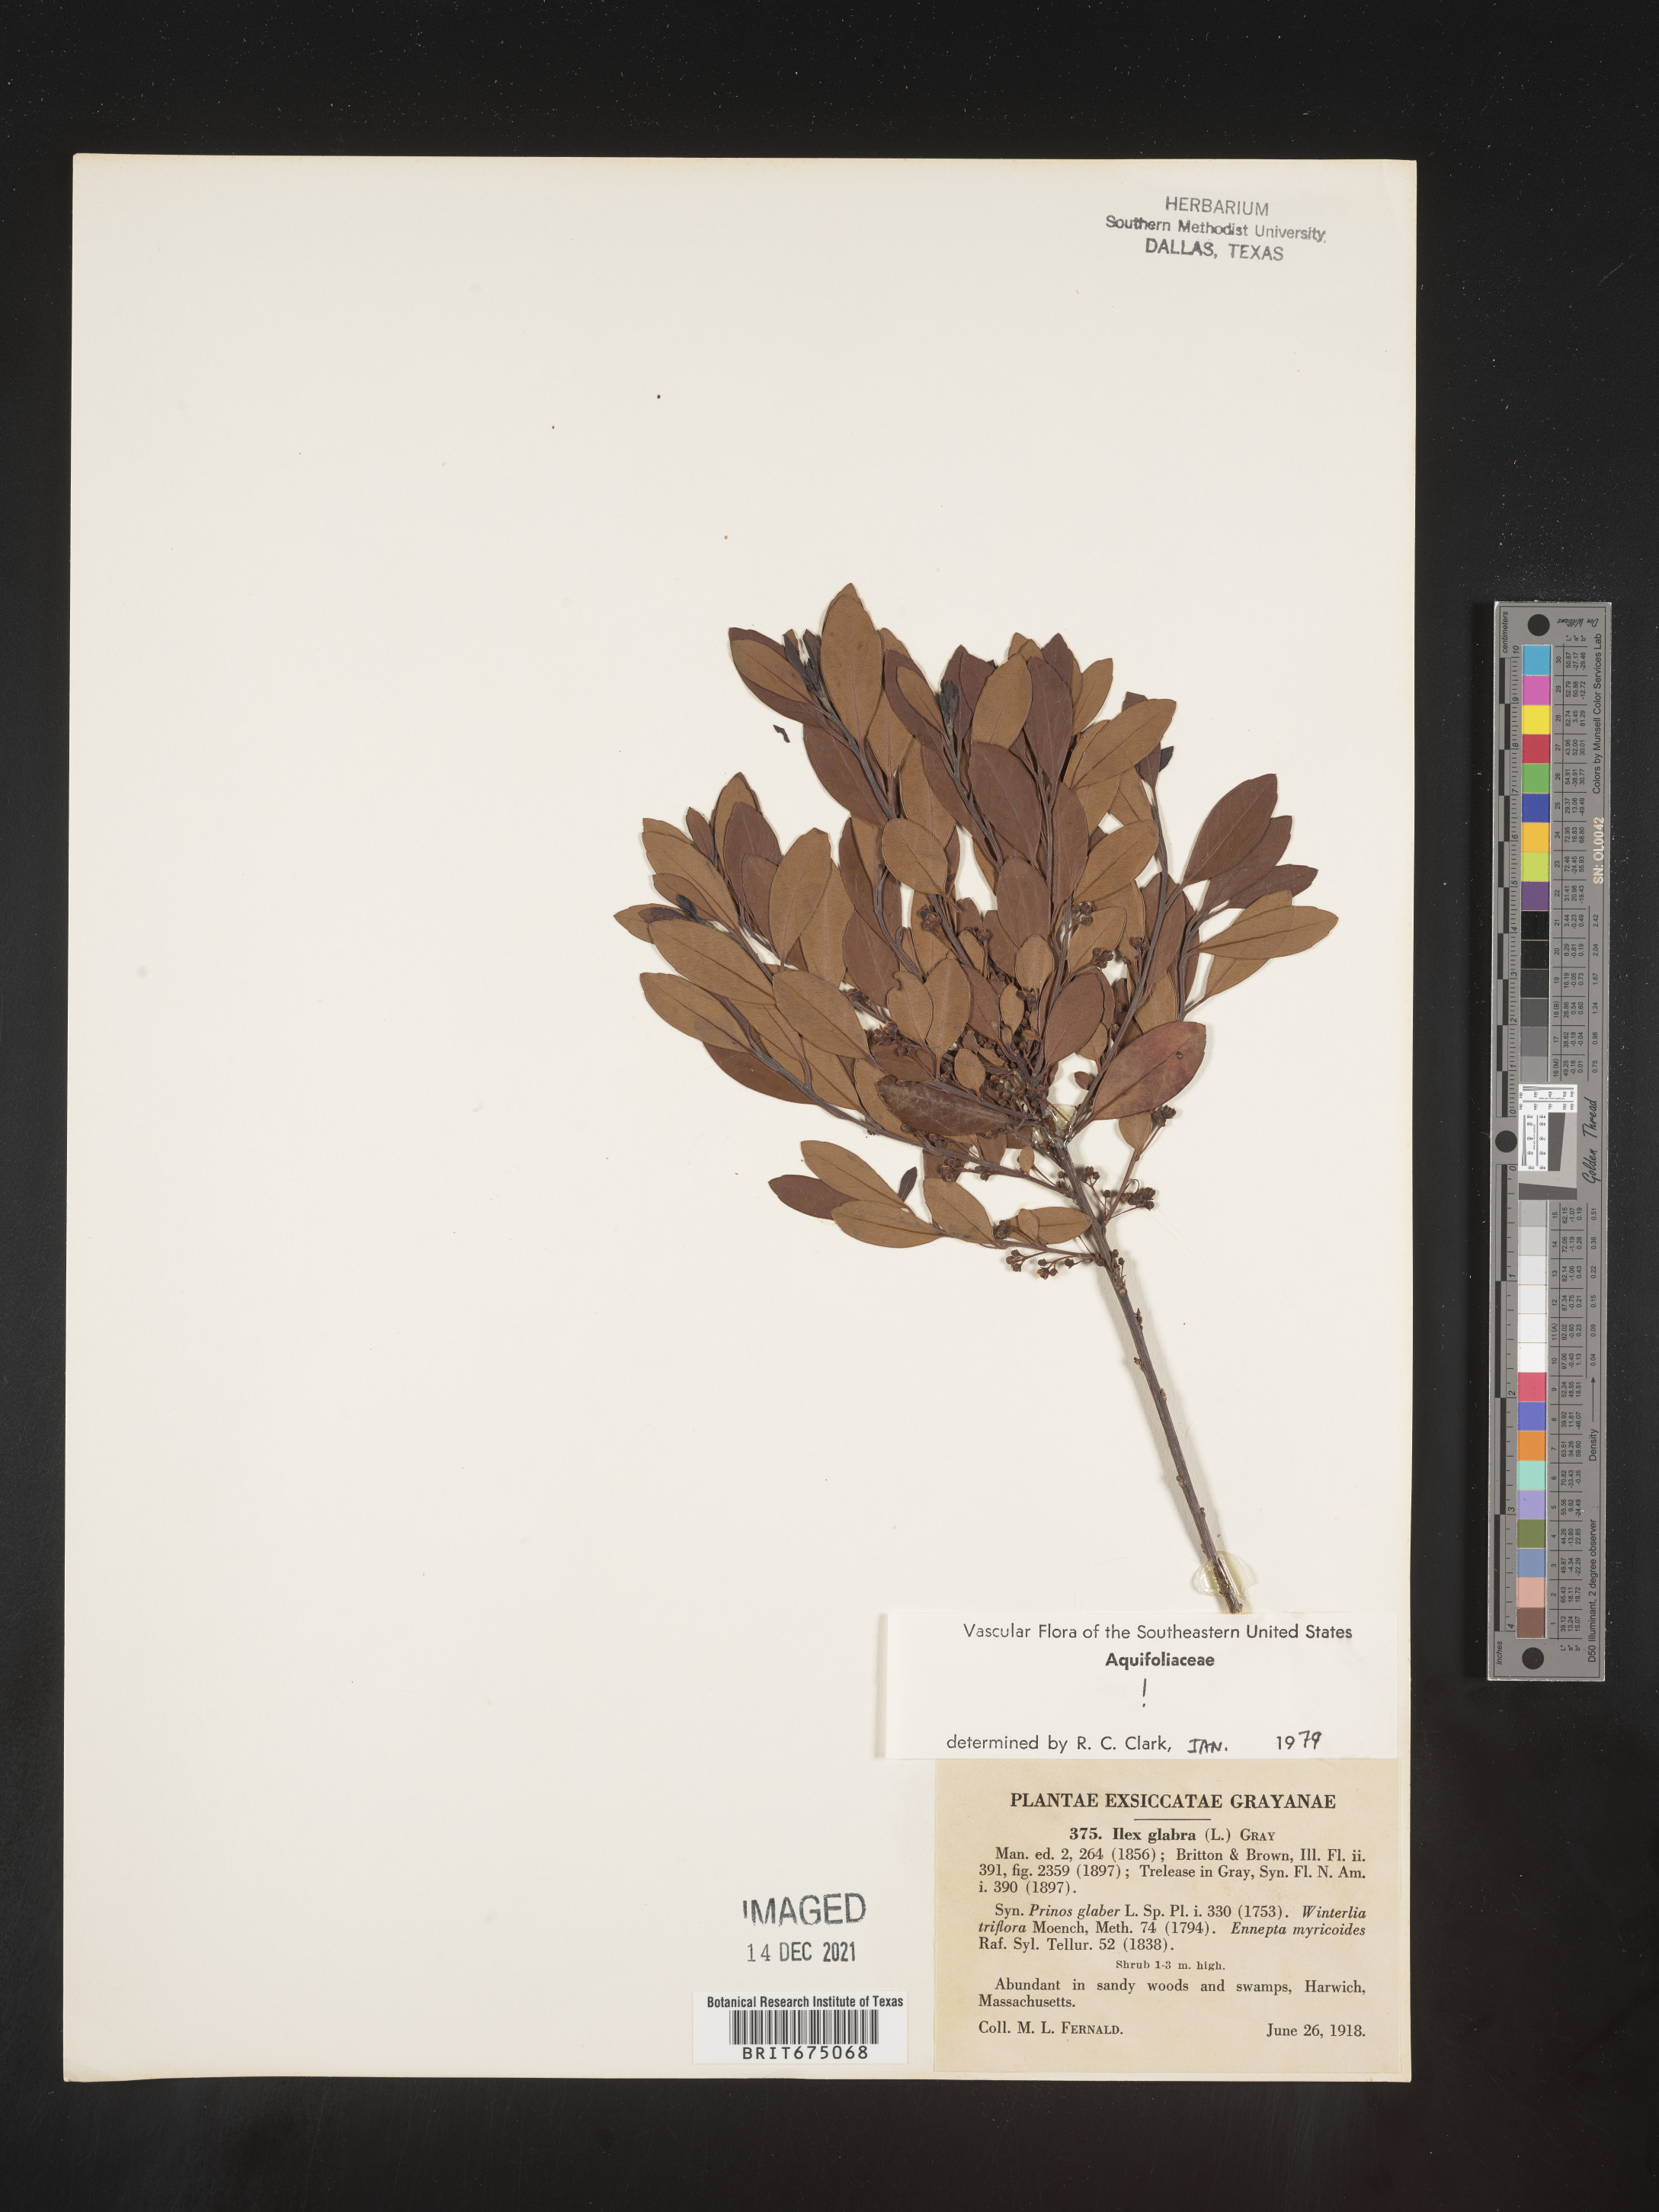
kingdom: Plantae
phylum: Tracheophyta
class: Magnoliopsida
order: Aquifoliales
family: Aquifoliaceae
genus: Ilex
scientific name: Ilex glabra
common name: Bitter gallberry
